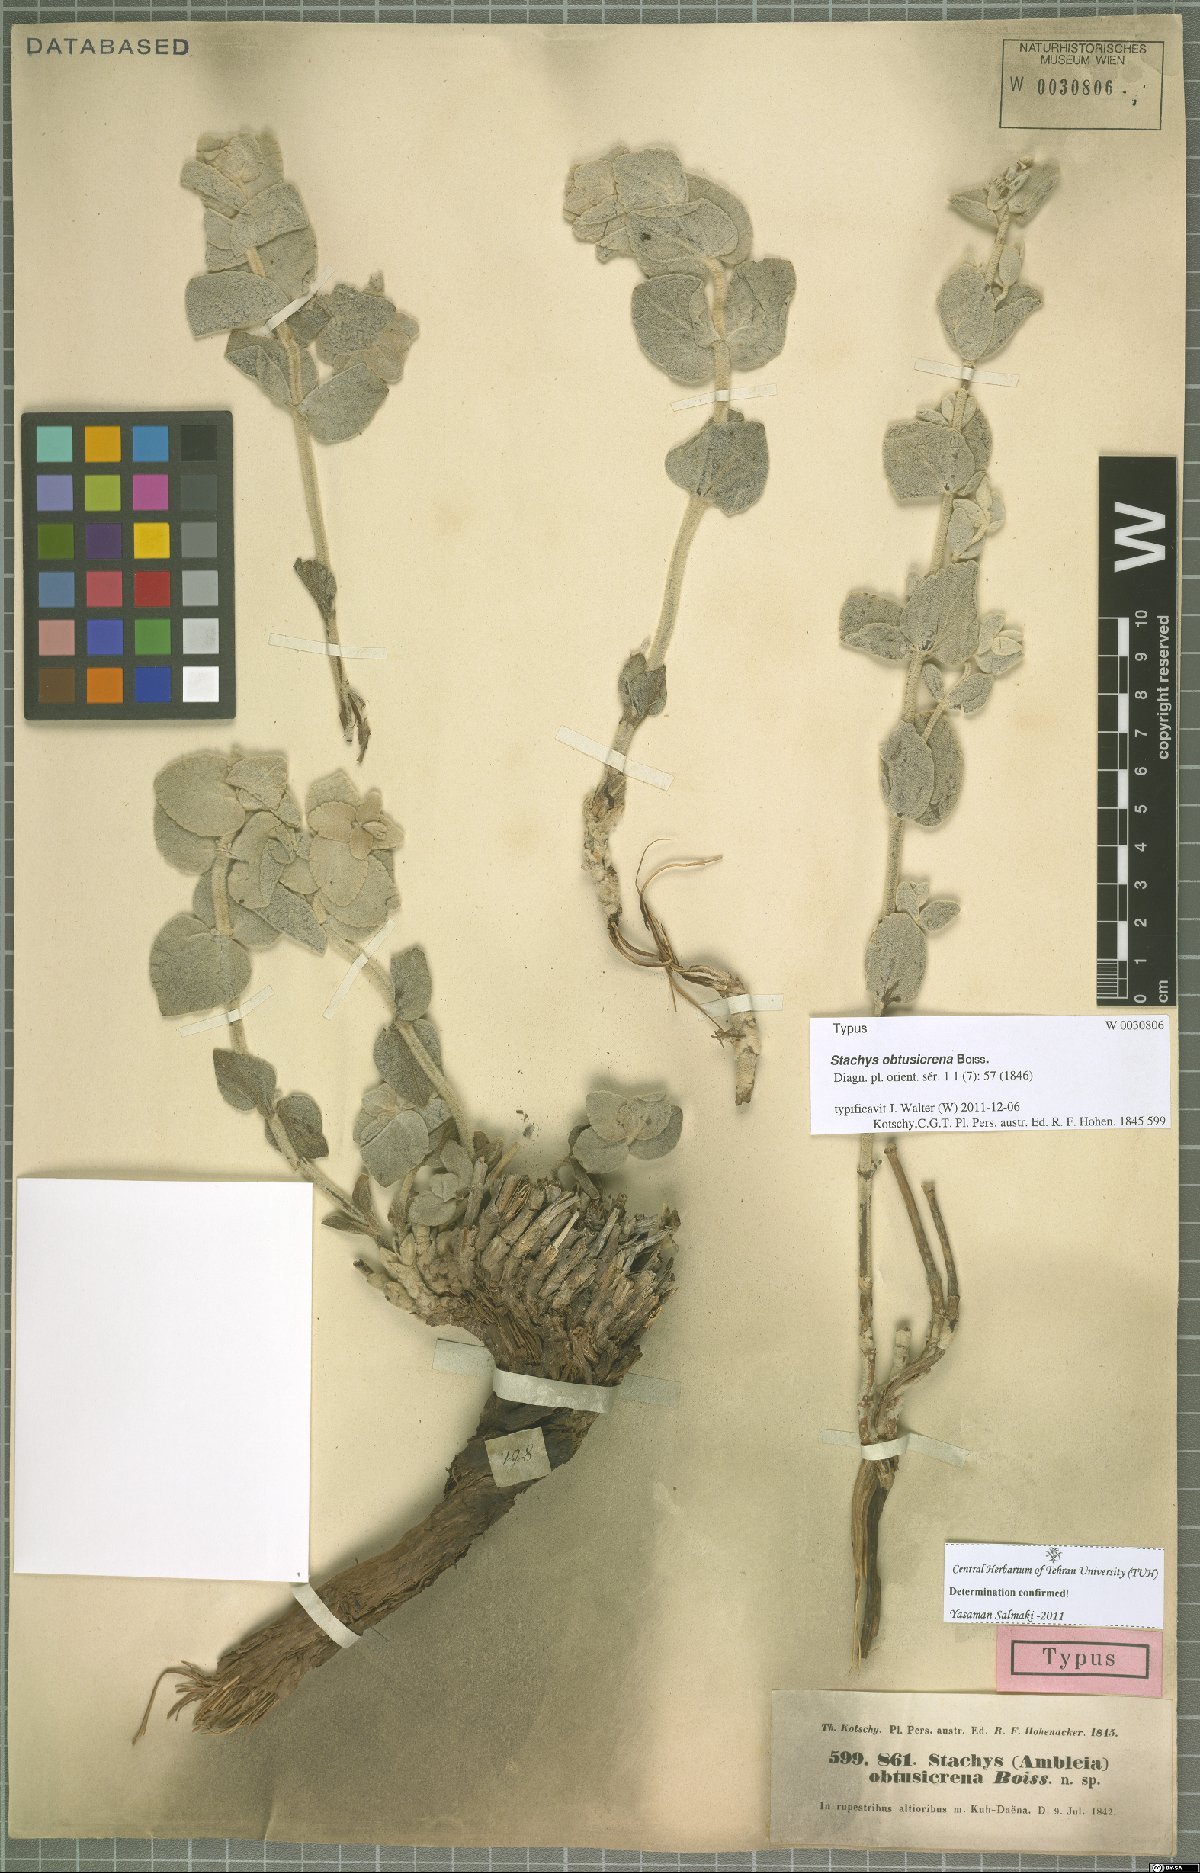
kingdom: Plantae
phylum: Tracheophyta
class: Magnoliopsida
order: Lamiales
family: Lamiaceae
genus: Stachys
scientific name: Stachys obtusicrena
